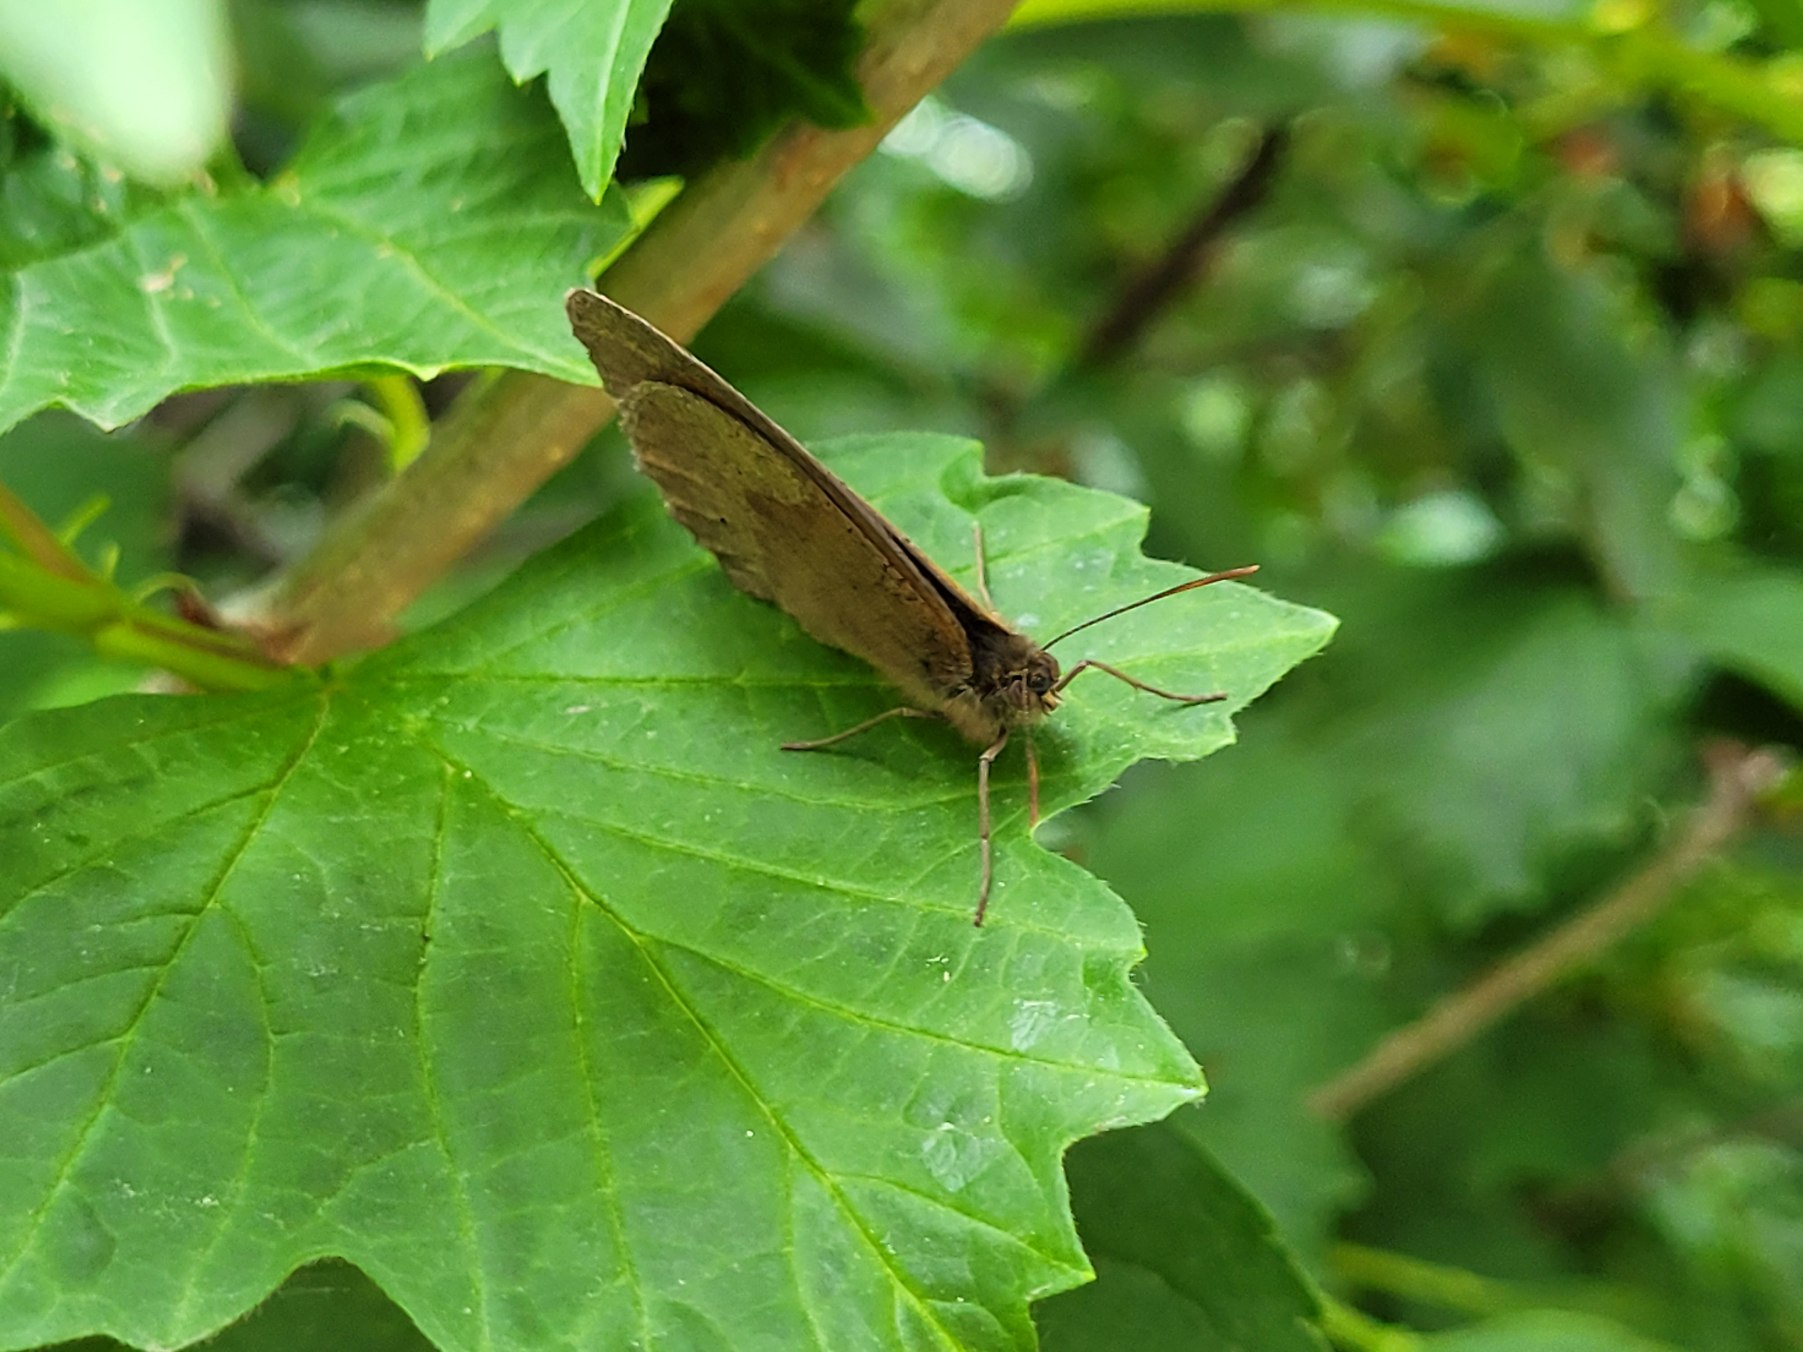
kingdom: Animalia
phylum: Arthropoda
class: Insecta
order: Lepidoptera
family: Nymphalidae
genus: Maniola
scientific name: Maniola jurtina
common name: Græsrandøje
